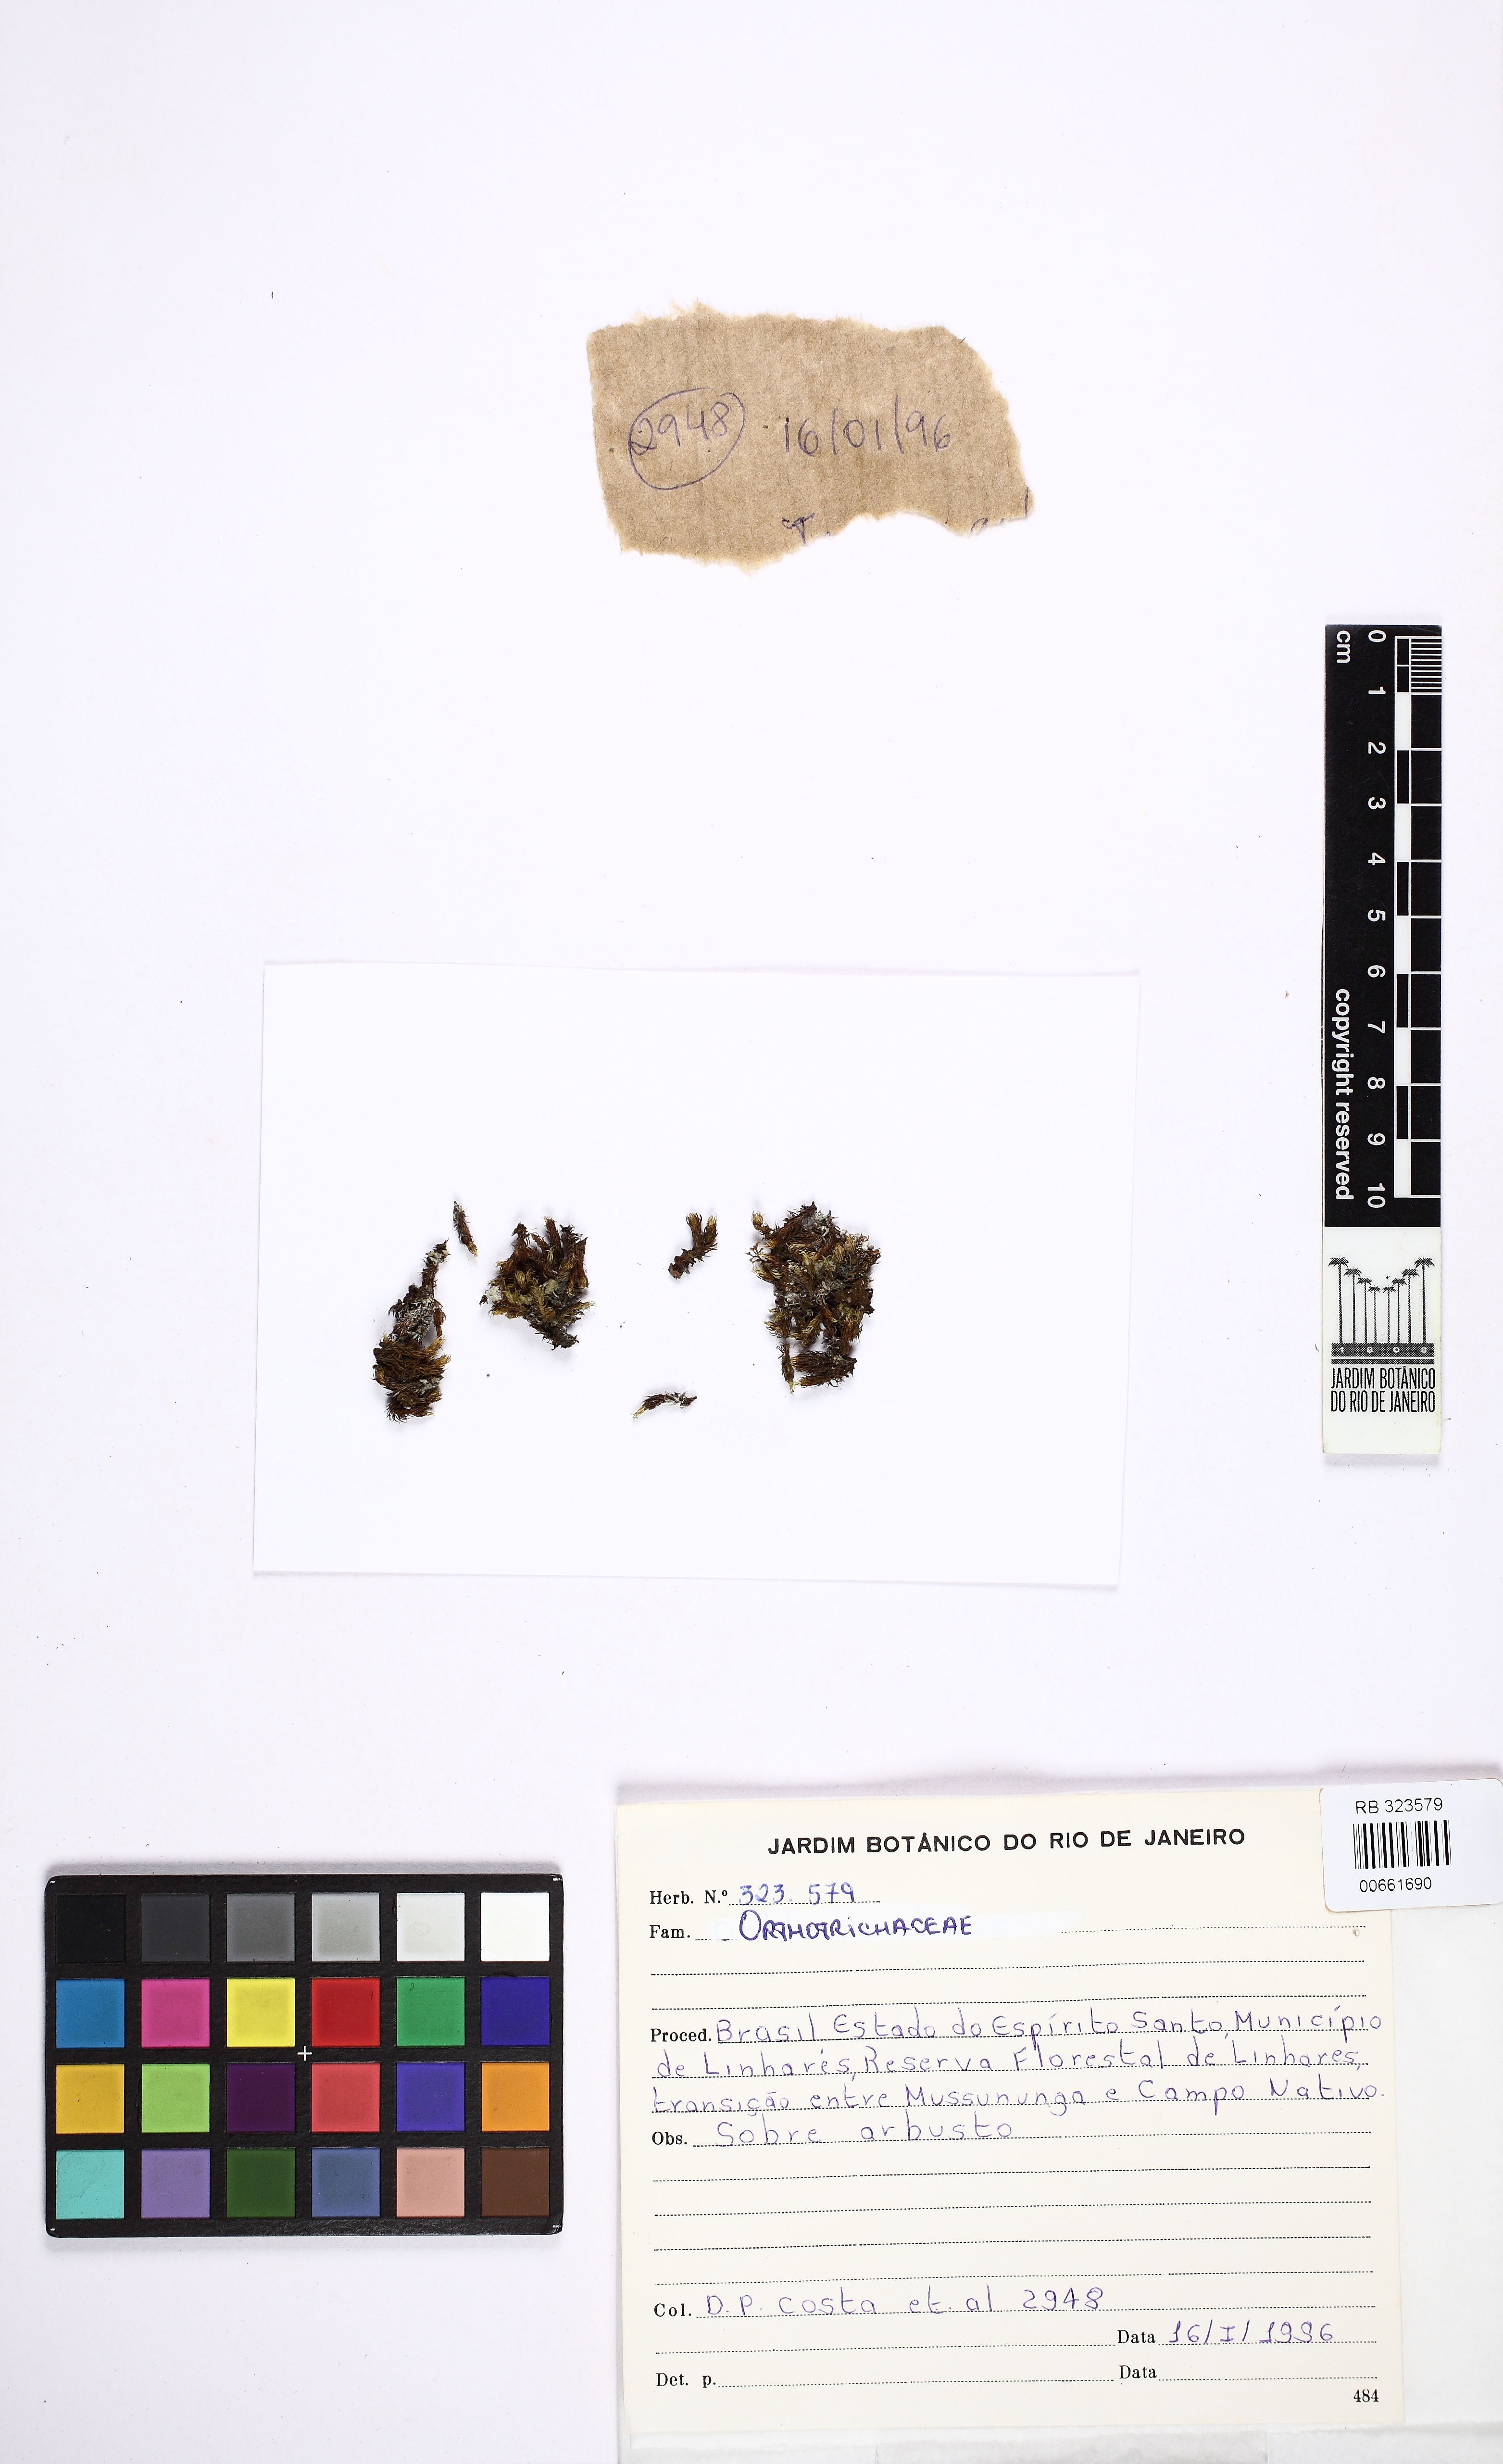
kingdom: Plantae
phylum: Bryophyta
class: Bryopsida
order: Orthotrichales
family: Orthotrichaceae
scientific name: Orthotrichaceae
